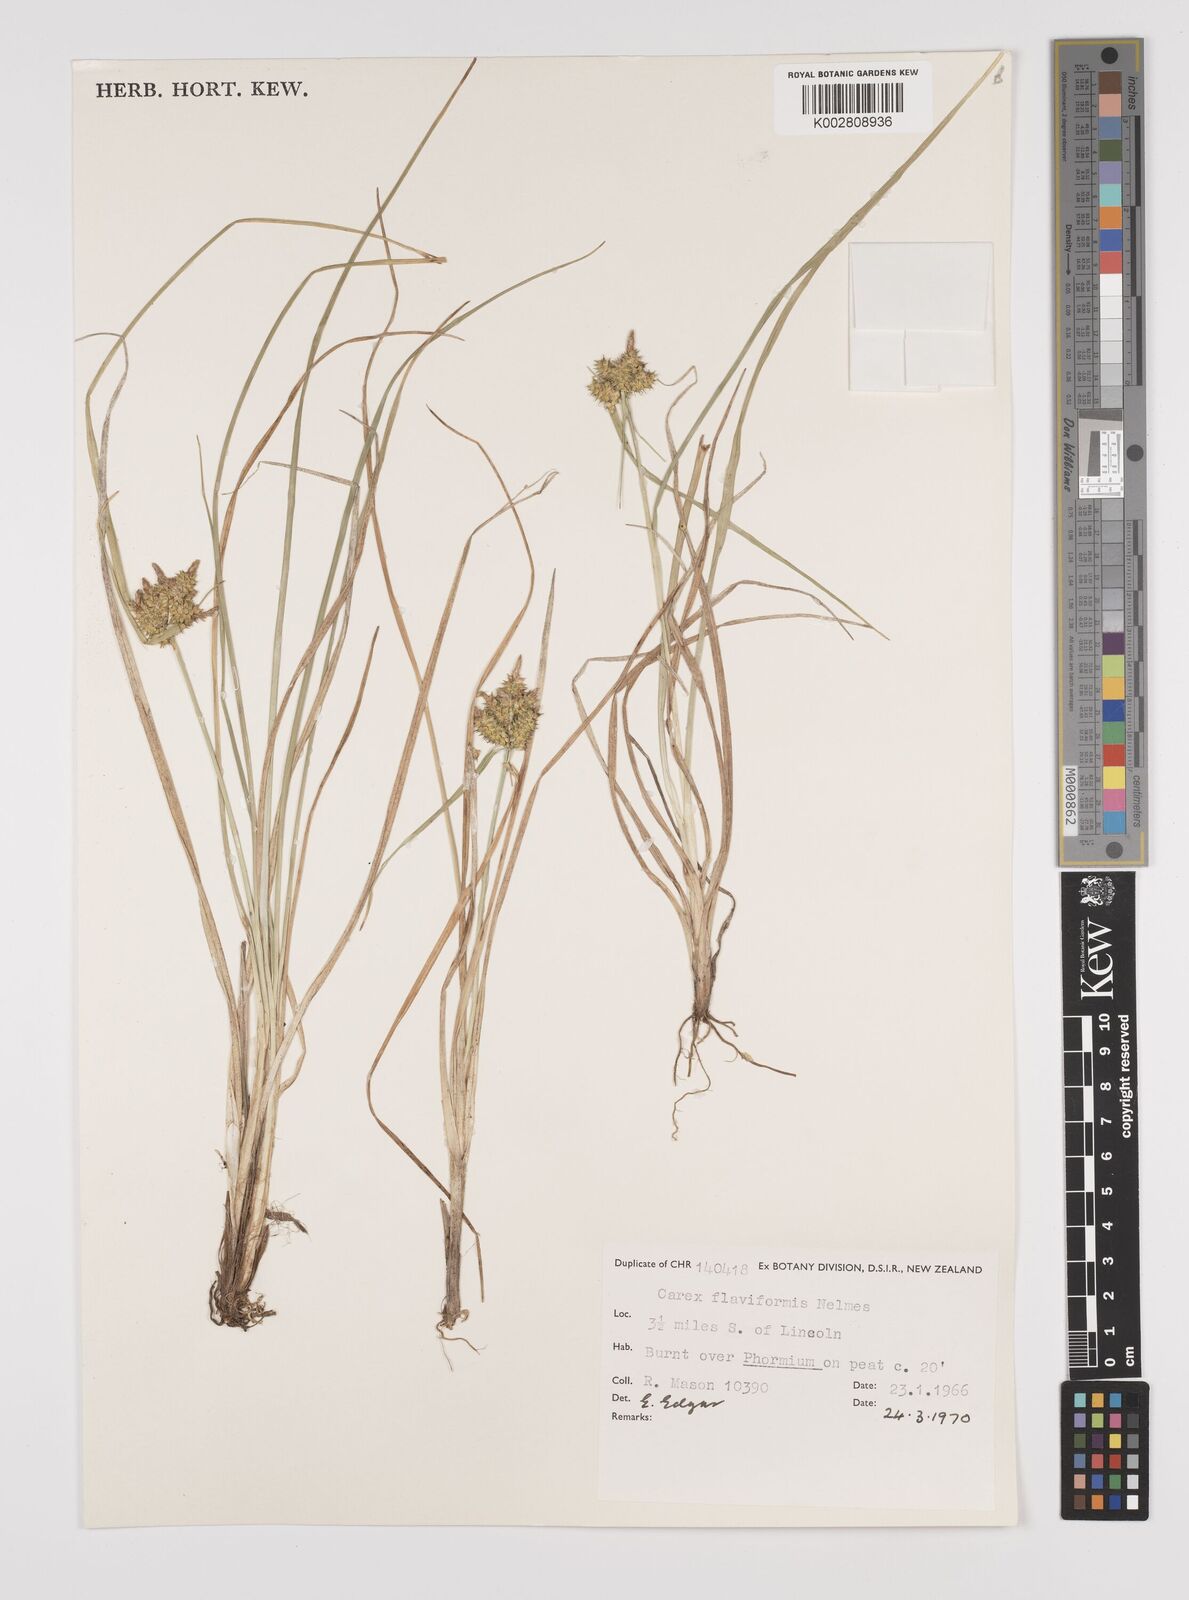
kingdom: Plantae
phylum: Tracheophyta
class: Liliopsida
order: Poales
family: Cyperaceae
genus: Carex
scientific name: Carex flaviformis
